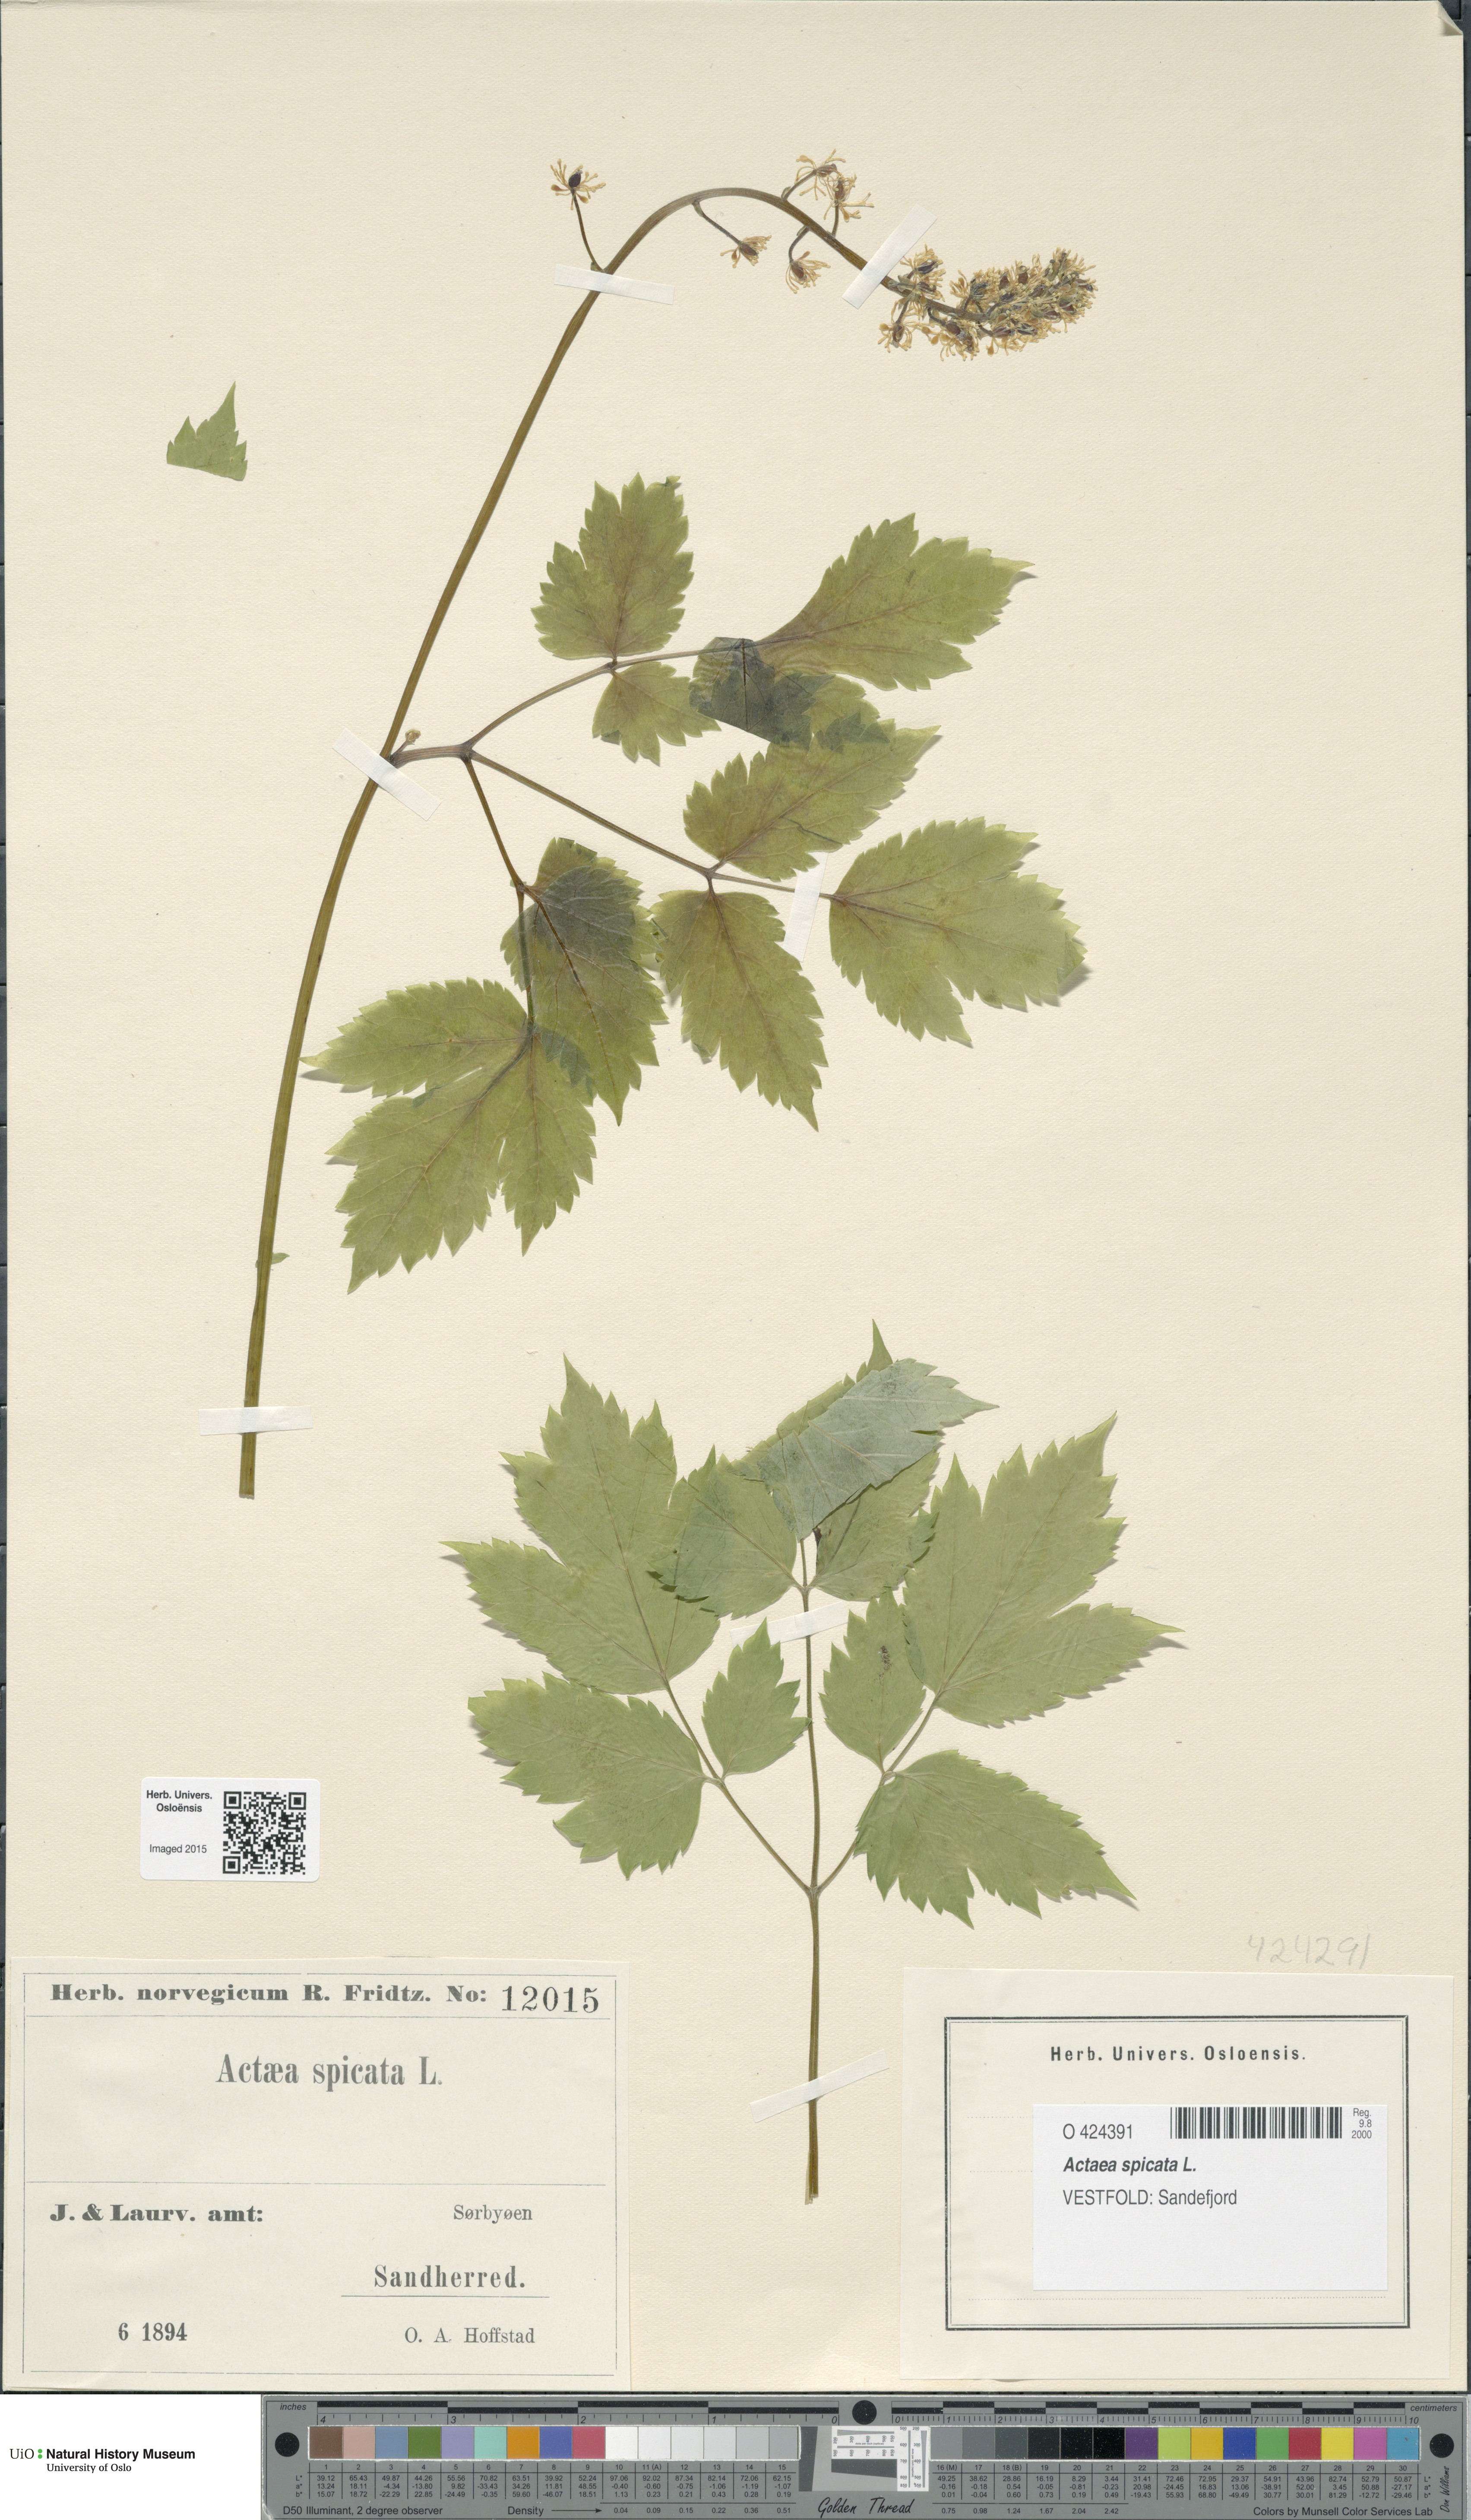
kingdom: Plantae
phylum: Tracheophyta
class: Magnoliopsida
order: Ranunculales
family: Ranunculaceae
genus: Actaea
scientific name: Actaea spicata
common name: Baneberry
